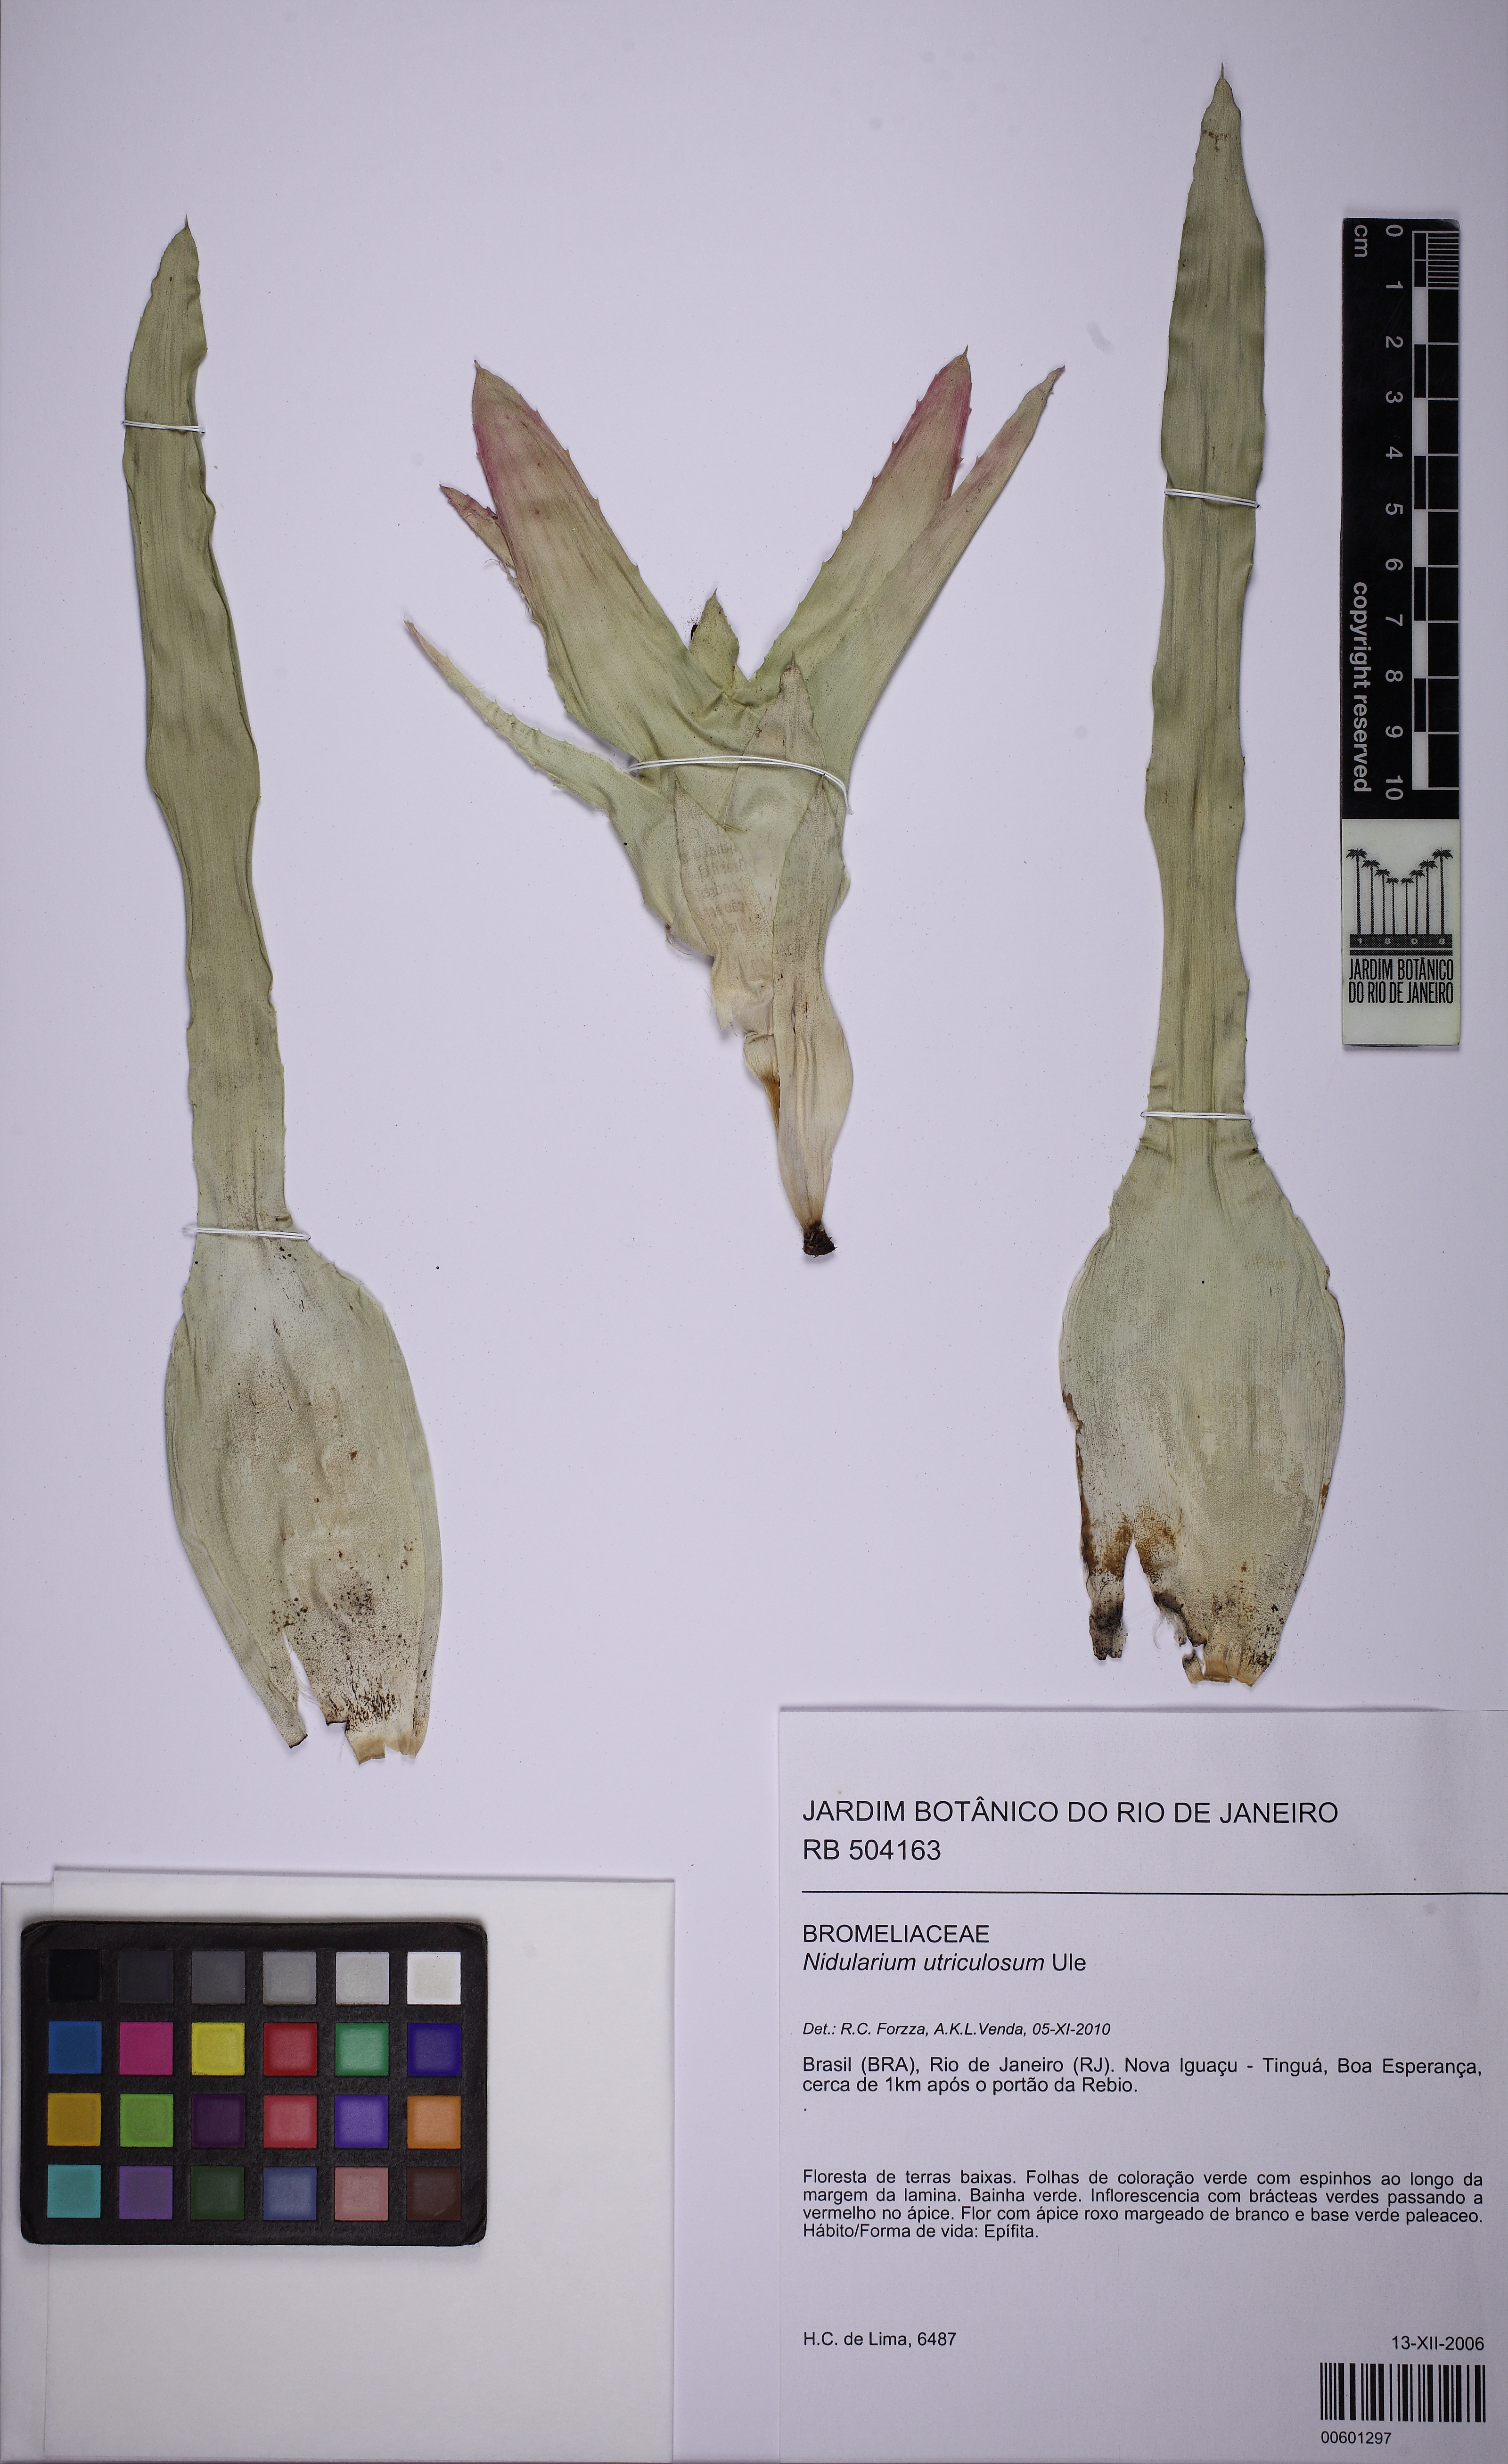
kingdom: Plantae
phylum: Tracheophyta
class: Liliopsida
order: Poales
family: Bromeliaceae
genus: Nidularium
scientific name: Nidularium utriculosum
